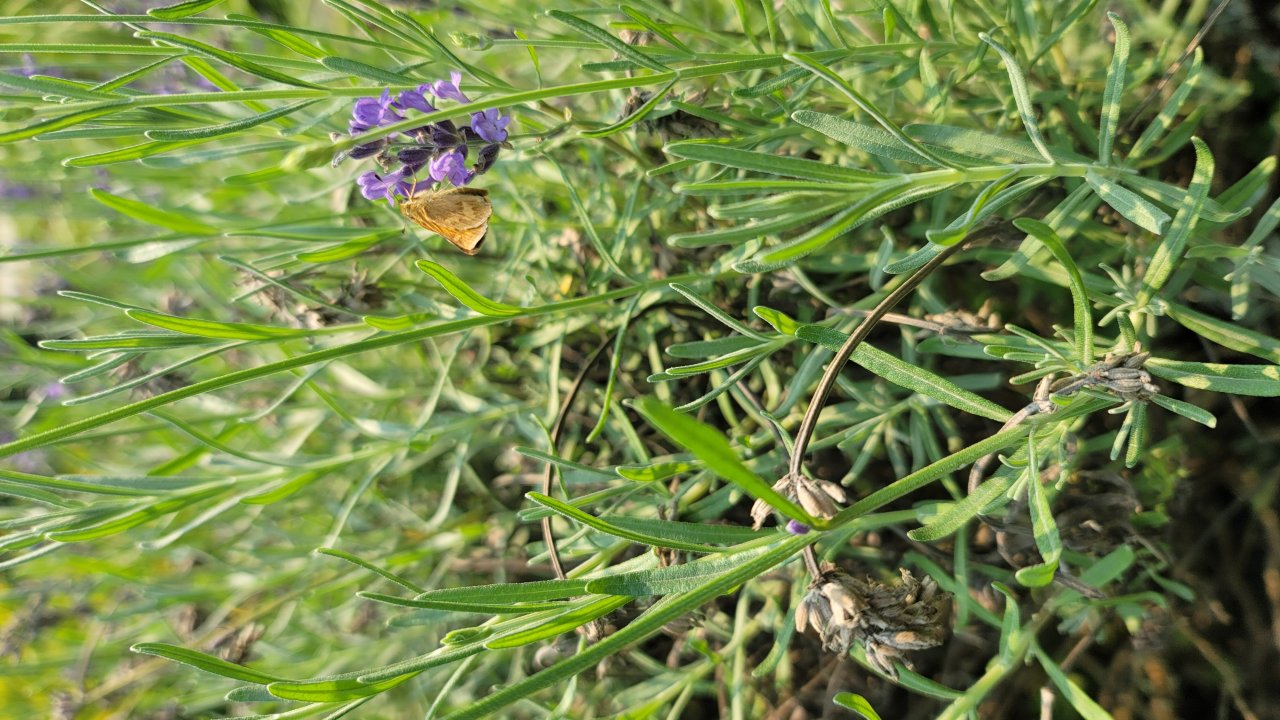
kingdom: Animalia
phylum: Arthropoda
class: Insecta
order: Lepidoptera
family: Hesperiidae
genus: Ochlodes
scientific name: Ochlodes sylvanoides
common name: Woodland Skipper
